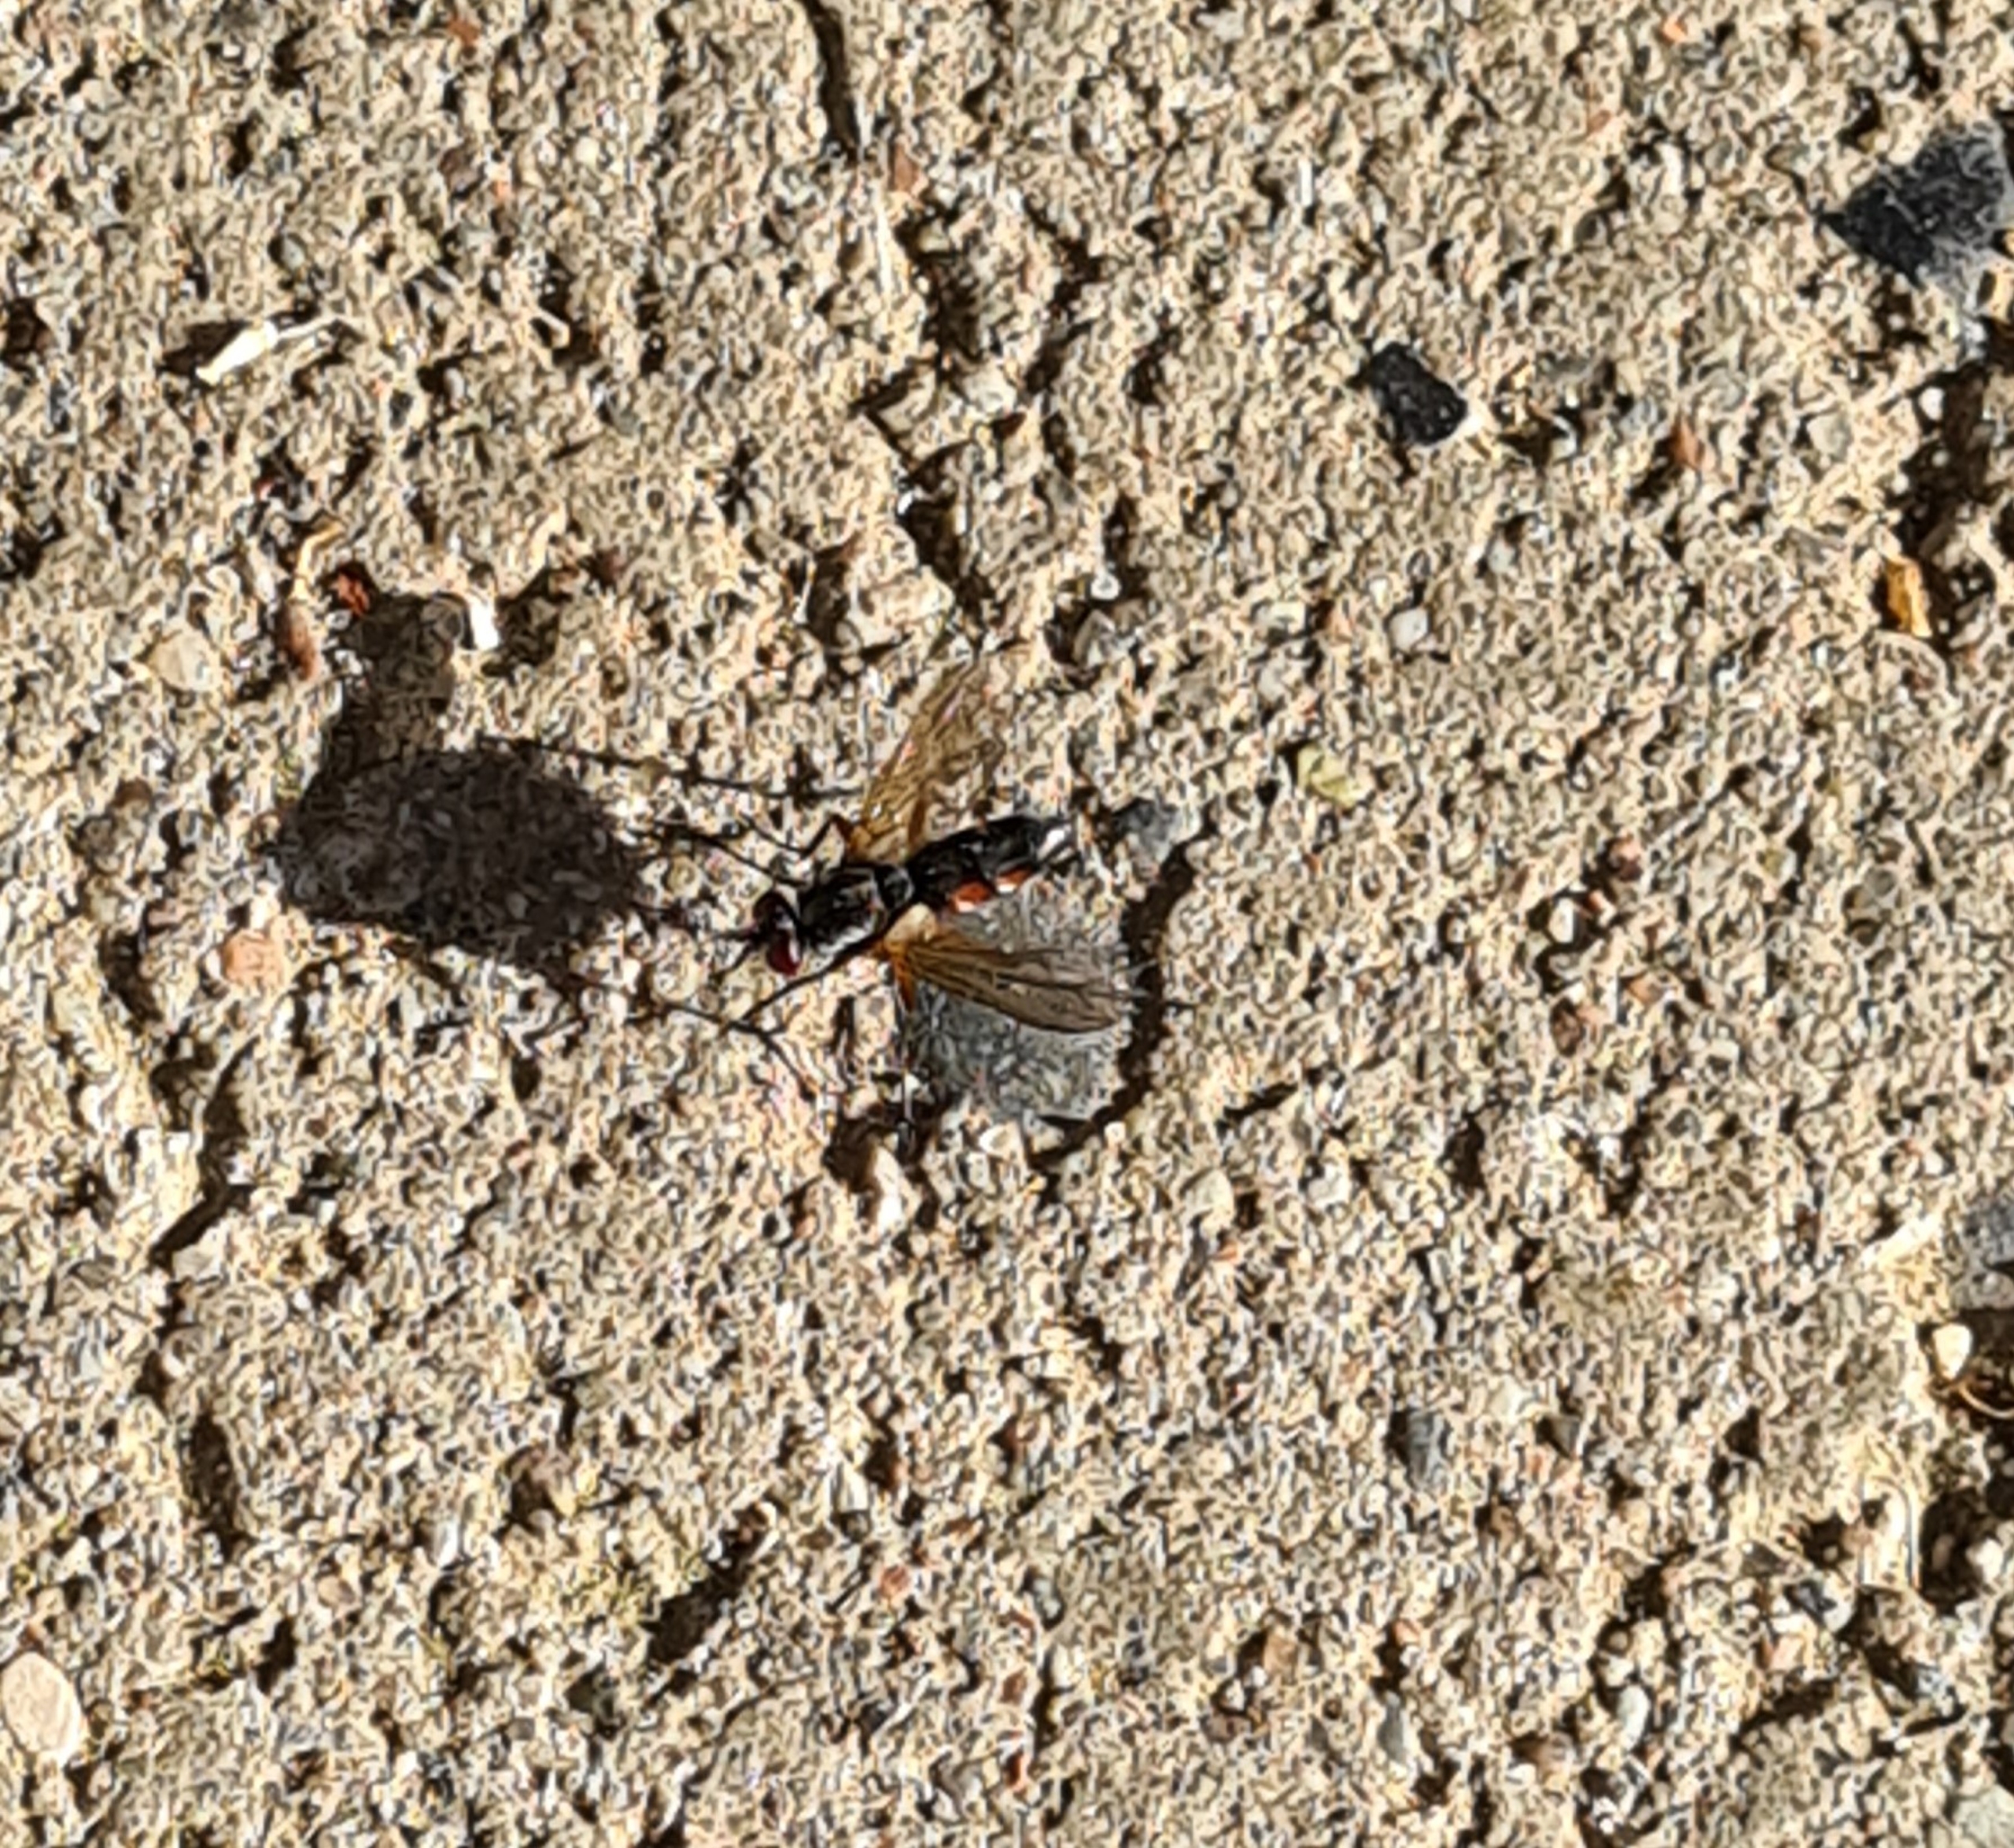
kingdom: Animalia
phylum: Arthropoda
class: Insecta
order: Diptera
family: Tachinidae
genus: Mintho
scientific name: Mintho rufiventris
